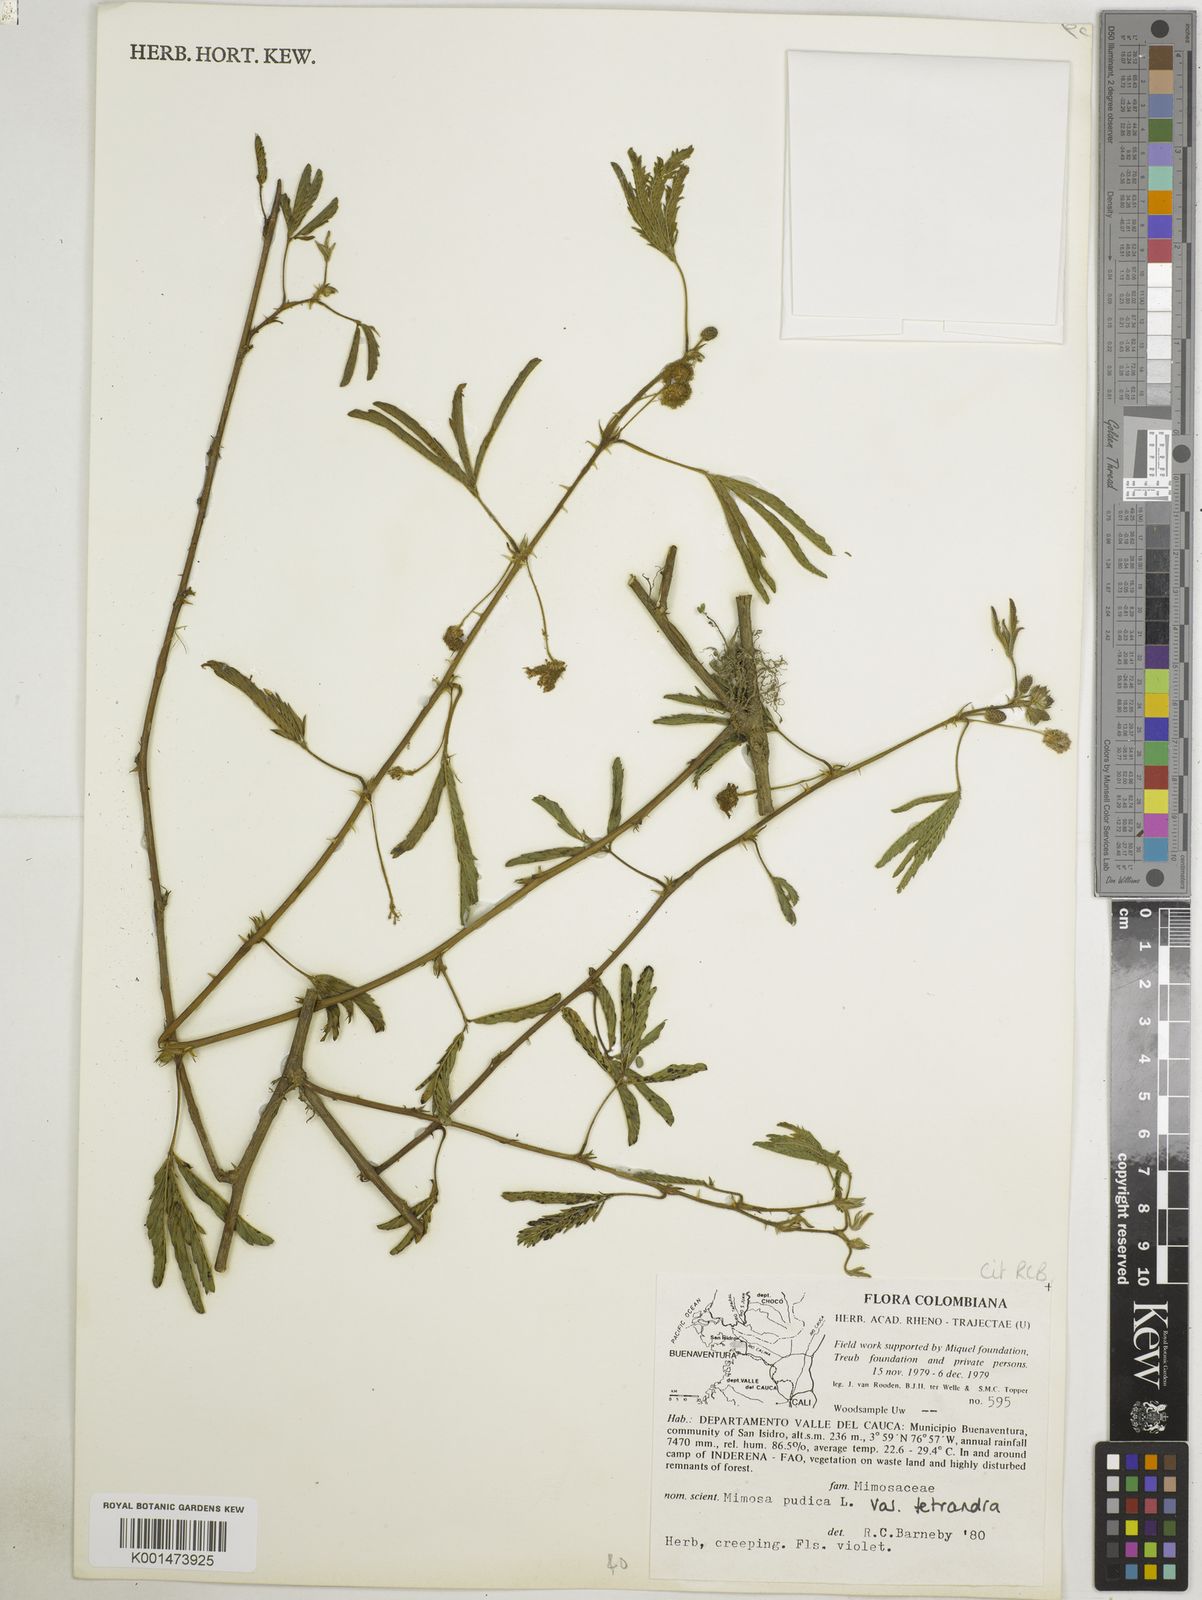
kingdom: Plantae
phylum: Tracheophyta
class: Magnoliopsida
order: Fabales
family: Fabaceae
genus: Mimosa
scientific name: Mimosa pudica
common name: Sensitive plant
